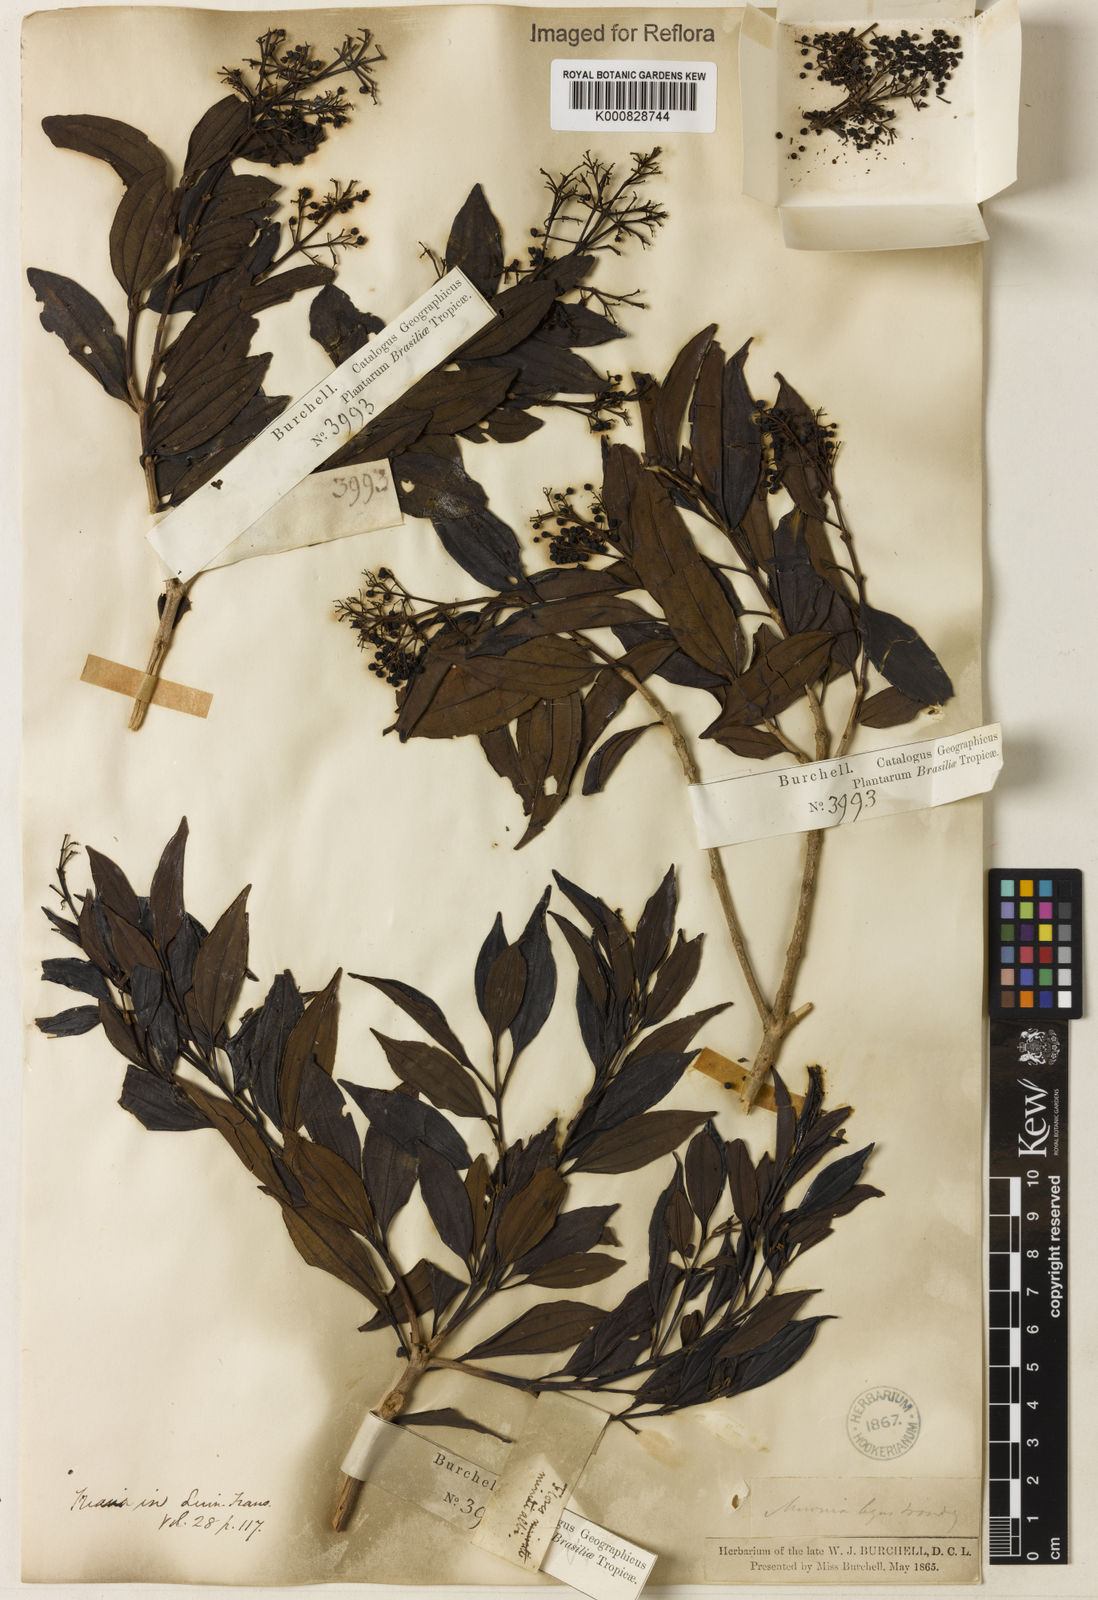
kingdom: Plantae
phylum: Tracheophyta
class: Magnoliopsida
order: Myrtales
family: Melastomataceae
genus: Miconia
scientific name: Miconia ligustroides
